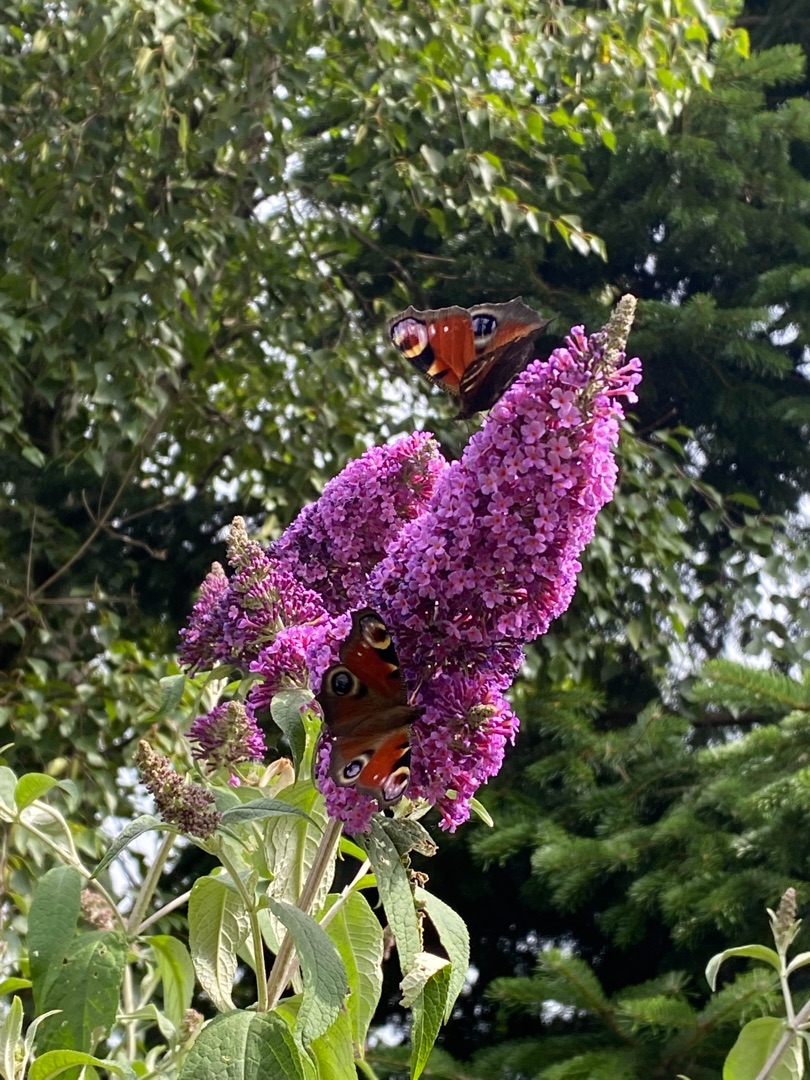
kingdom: Animalia
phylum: Arthropoda
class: Insecta
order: Lepidoptera
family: Nymphalidae
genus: Aglais
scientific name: Aglais io
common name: Dagpåfugleøje
